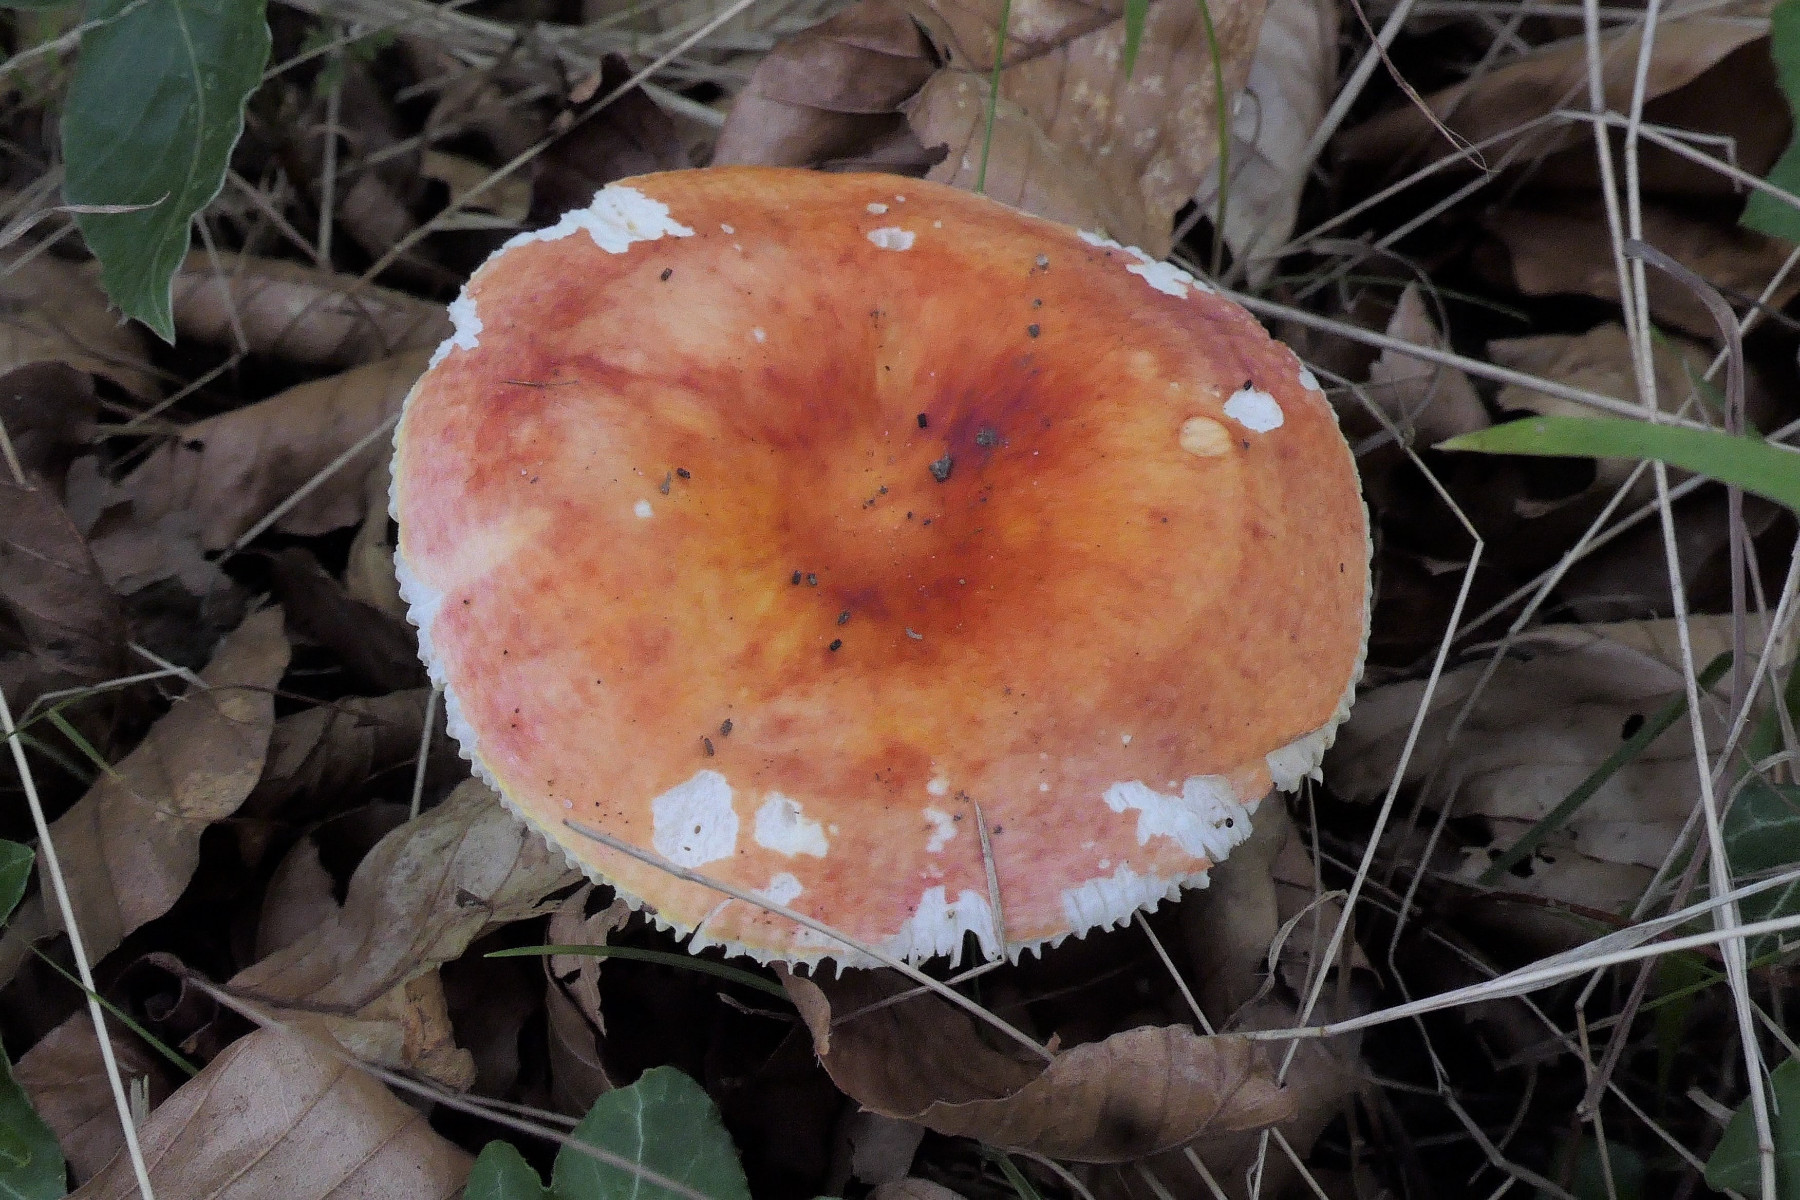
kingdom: Fungi
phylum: Basidiomycota
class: Agaricomycetes
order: Russulales
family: Russulaceae
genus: Russula
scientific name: Russula aurea
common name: gylden skørhat
